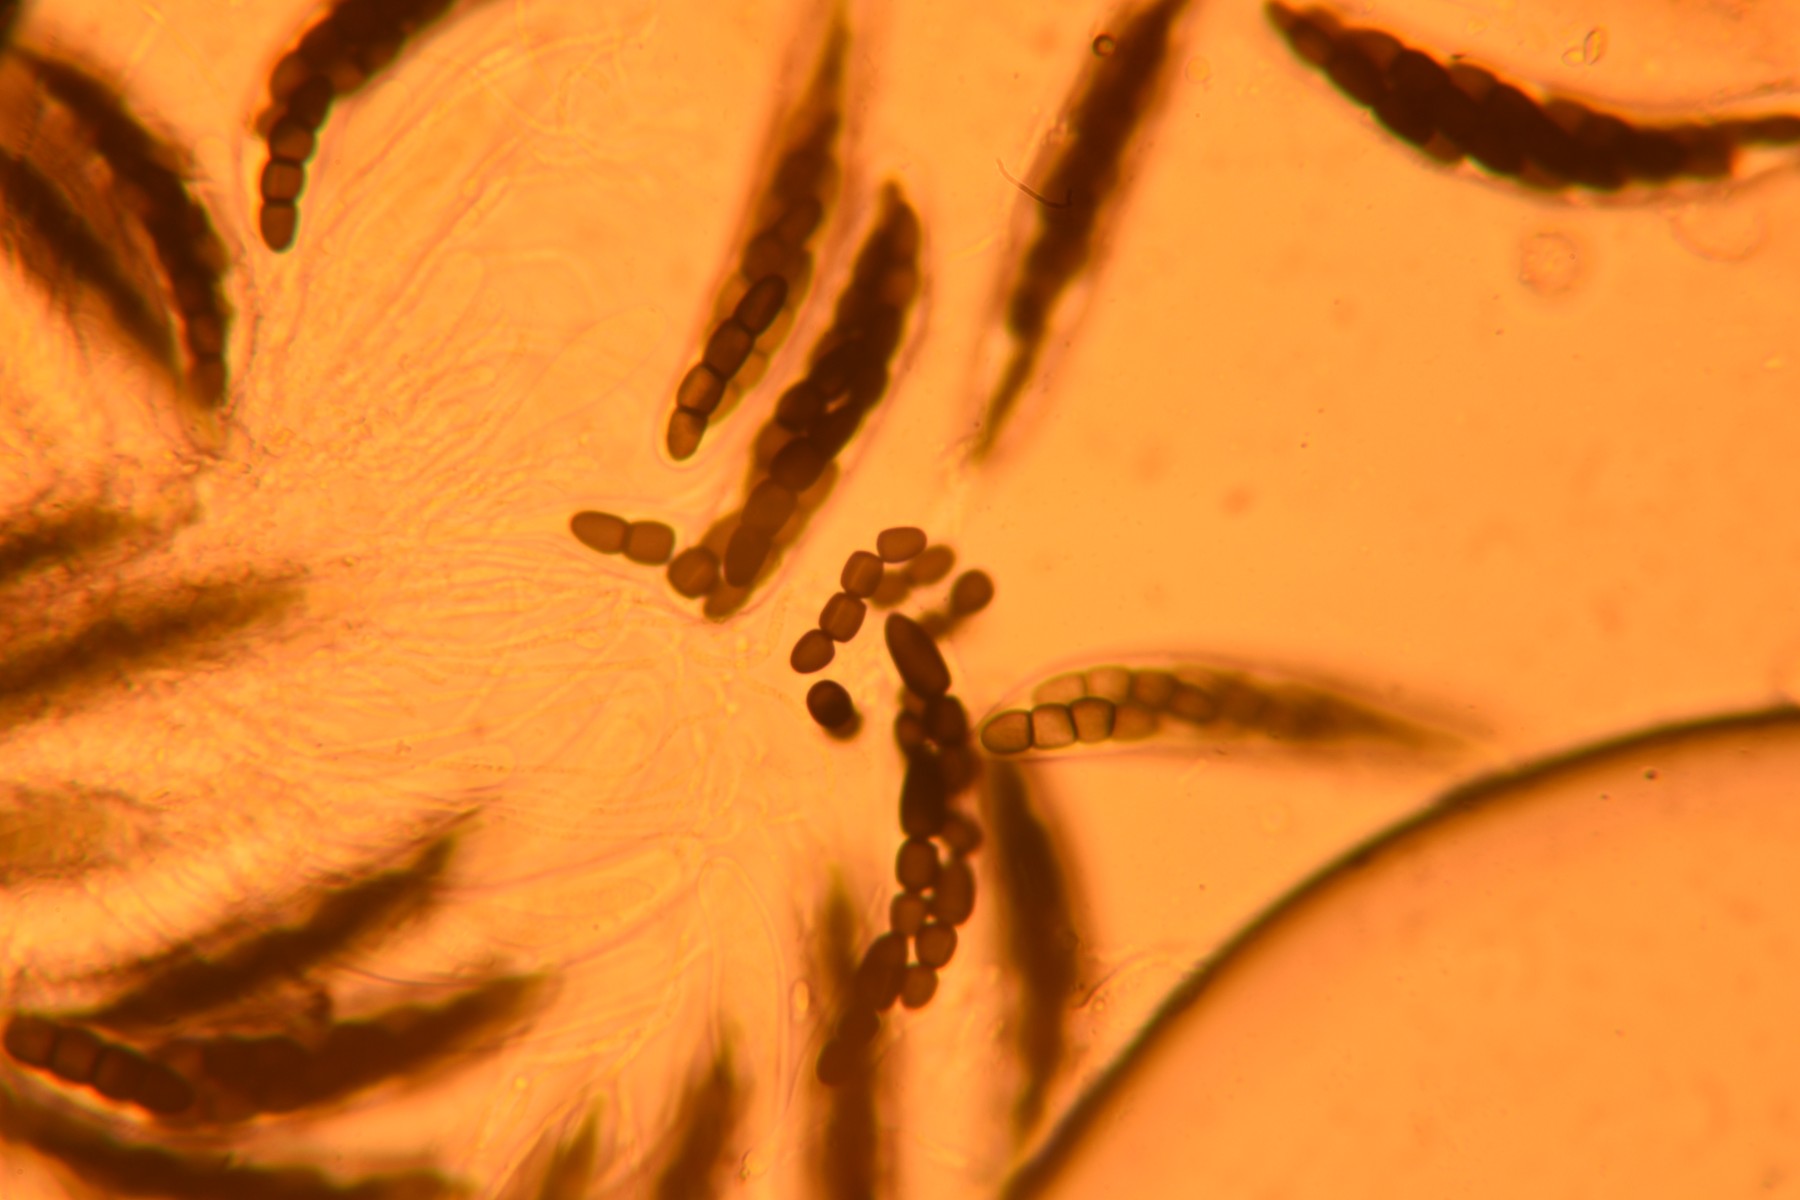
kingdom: Fungi
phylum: Ascomycota
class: Dothideomycetes
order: Pleosporales
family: Sporormiaceae
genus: Sporormiella
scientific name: Sporormiella
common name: knækspore
